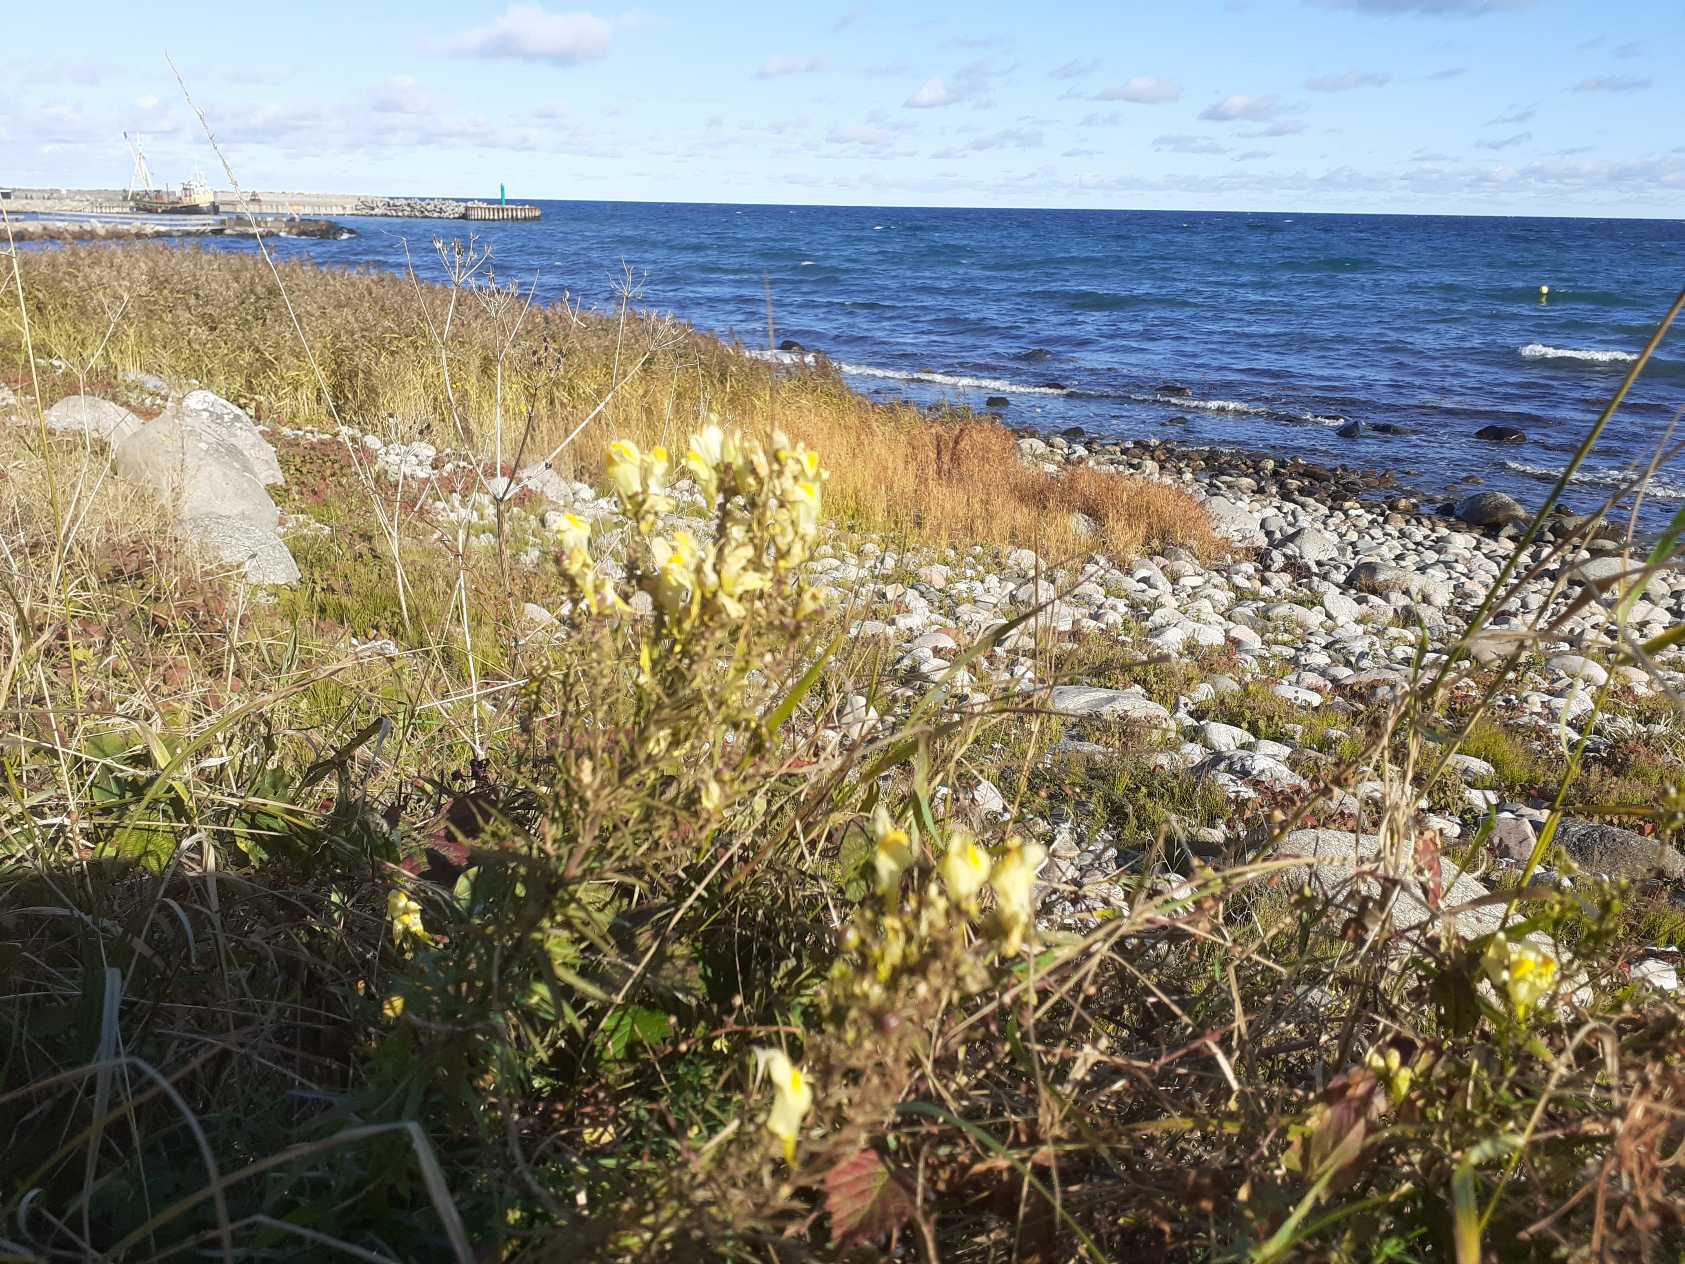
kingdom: Plantae
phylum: Tracheophyta
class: Magnoliopsida
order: Lamiales
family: Plantaginaceae
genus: Linaria
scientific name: Linaria vulgaris
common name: Almindelig torskemund
